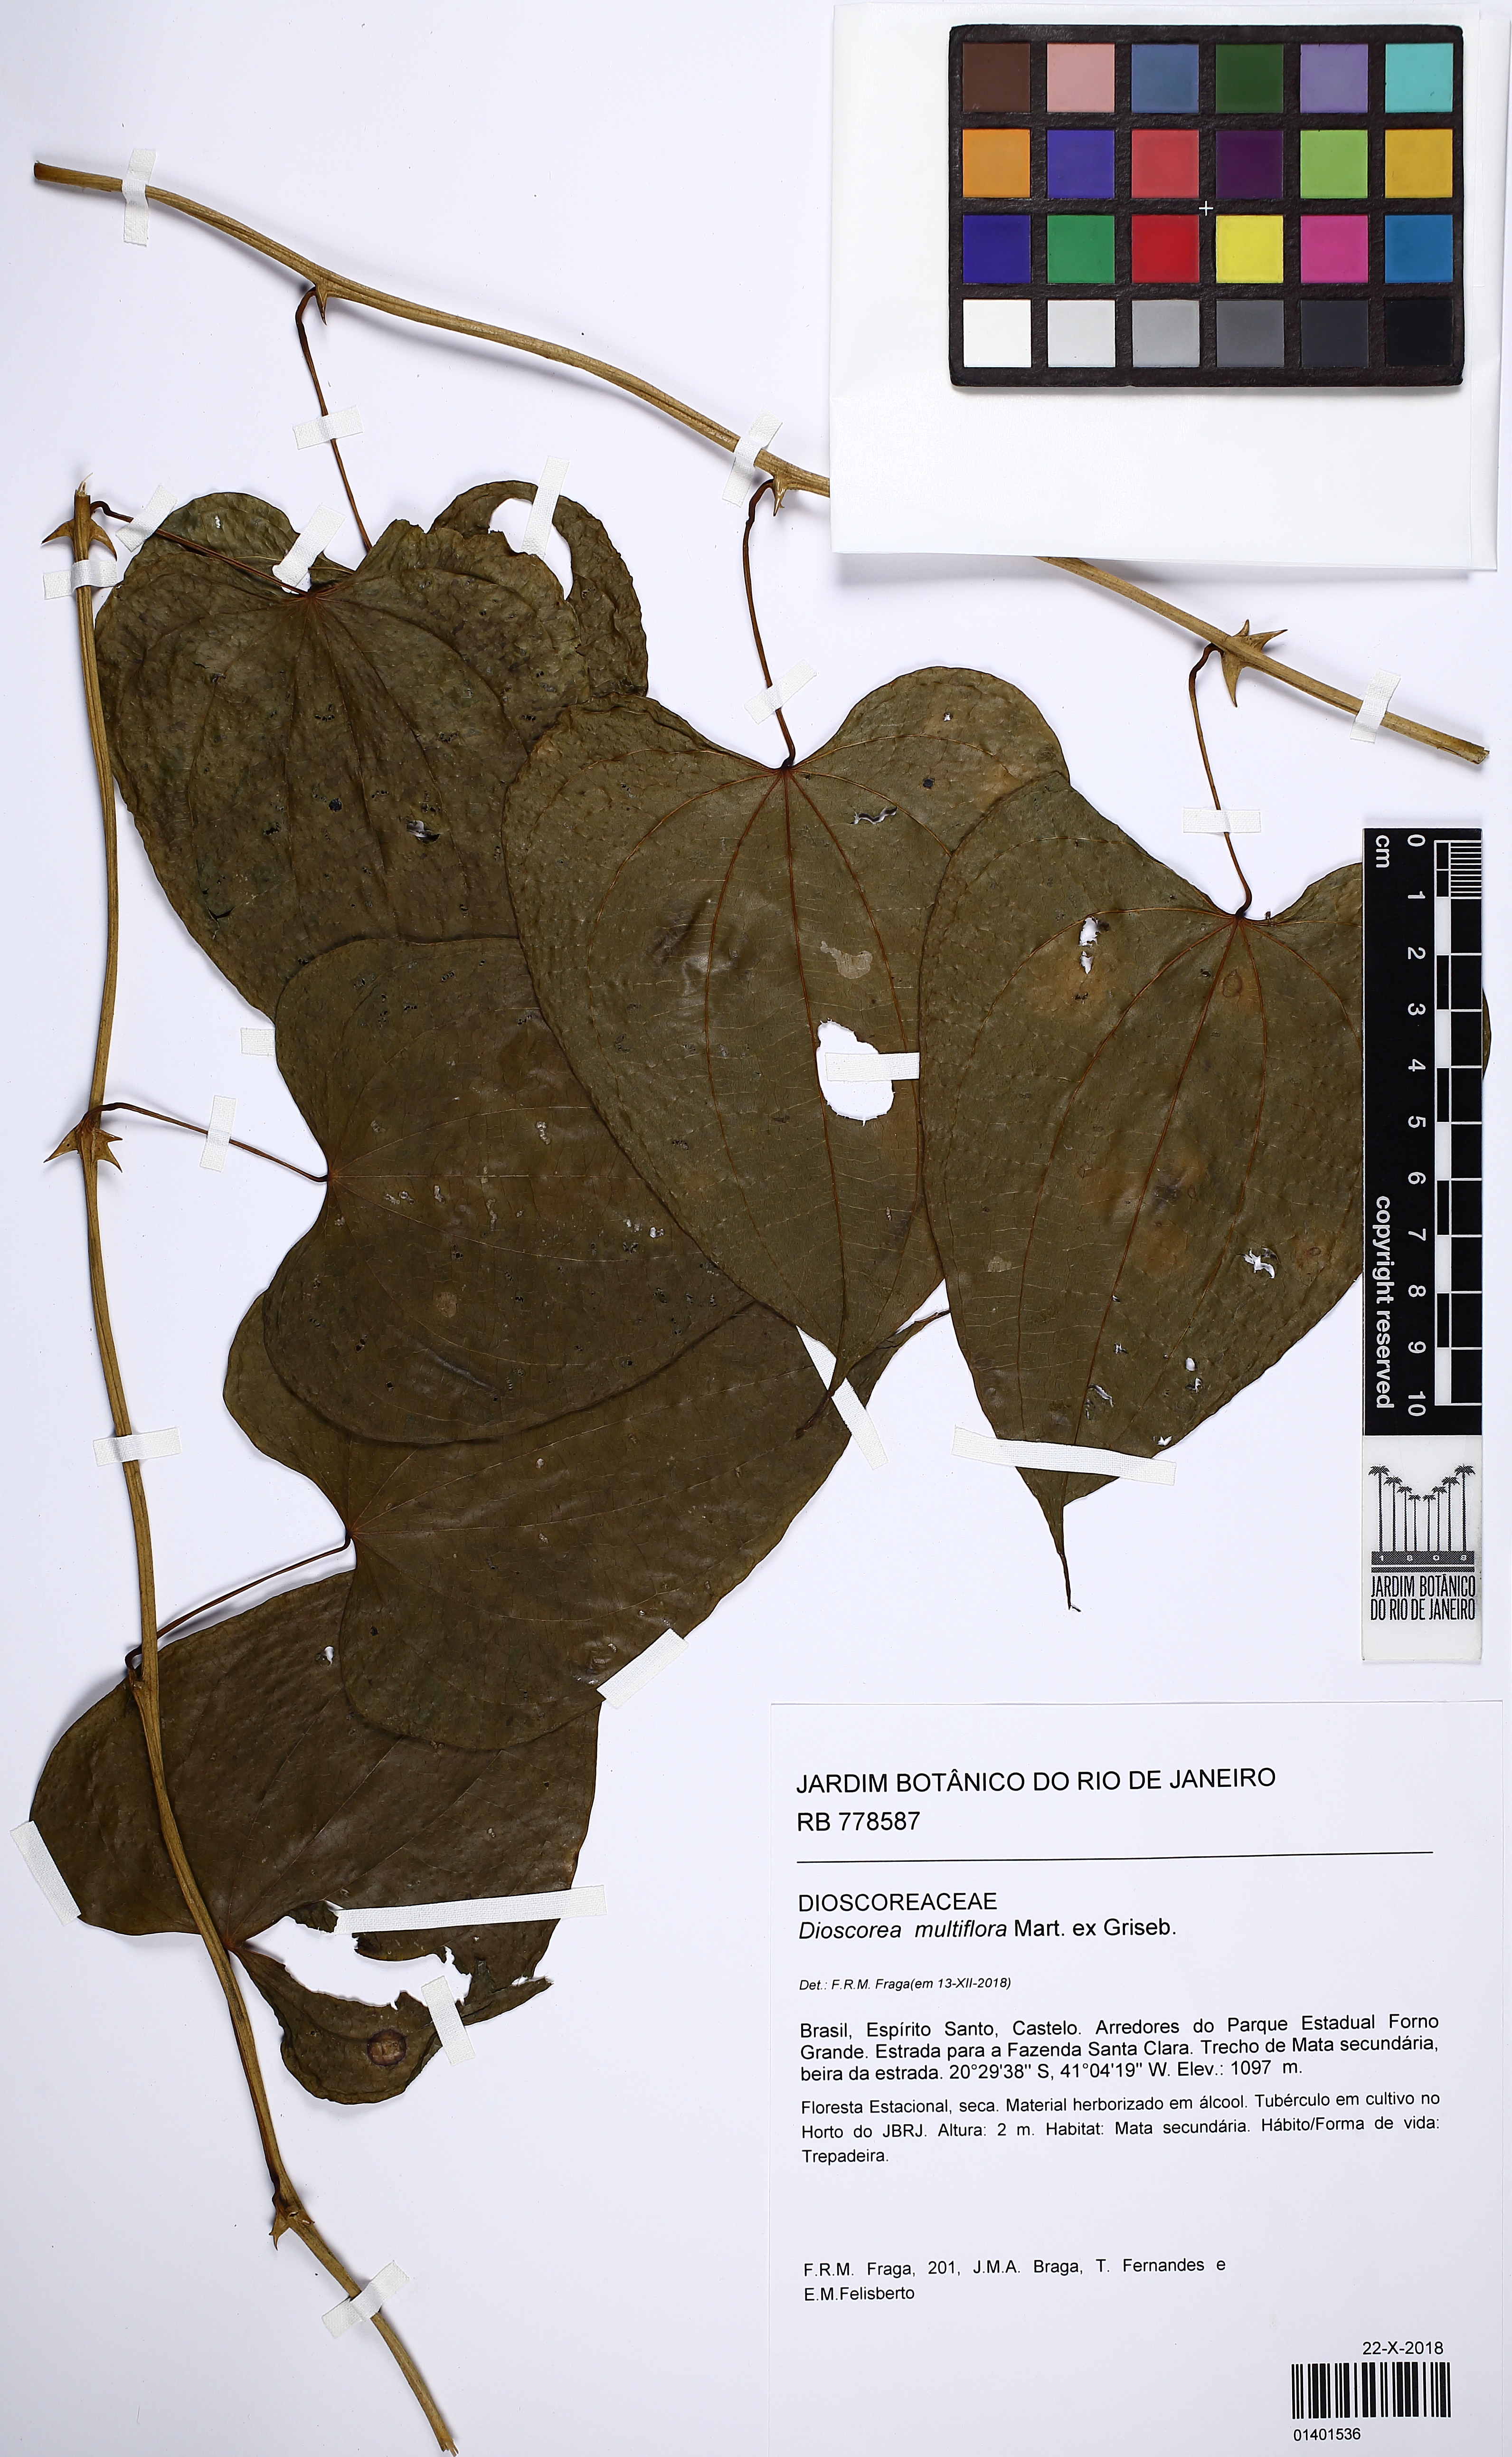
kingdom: Plantae
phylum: Tracheophyta
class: Liliopsida
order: Dioscoreales
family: Dioscoreaceae
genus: Dioscorea
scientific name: Dioscorea multiflora
